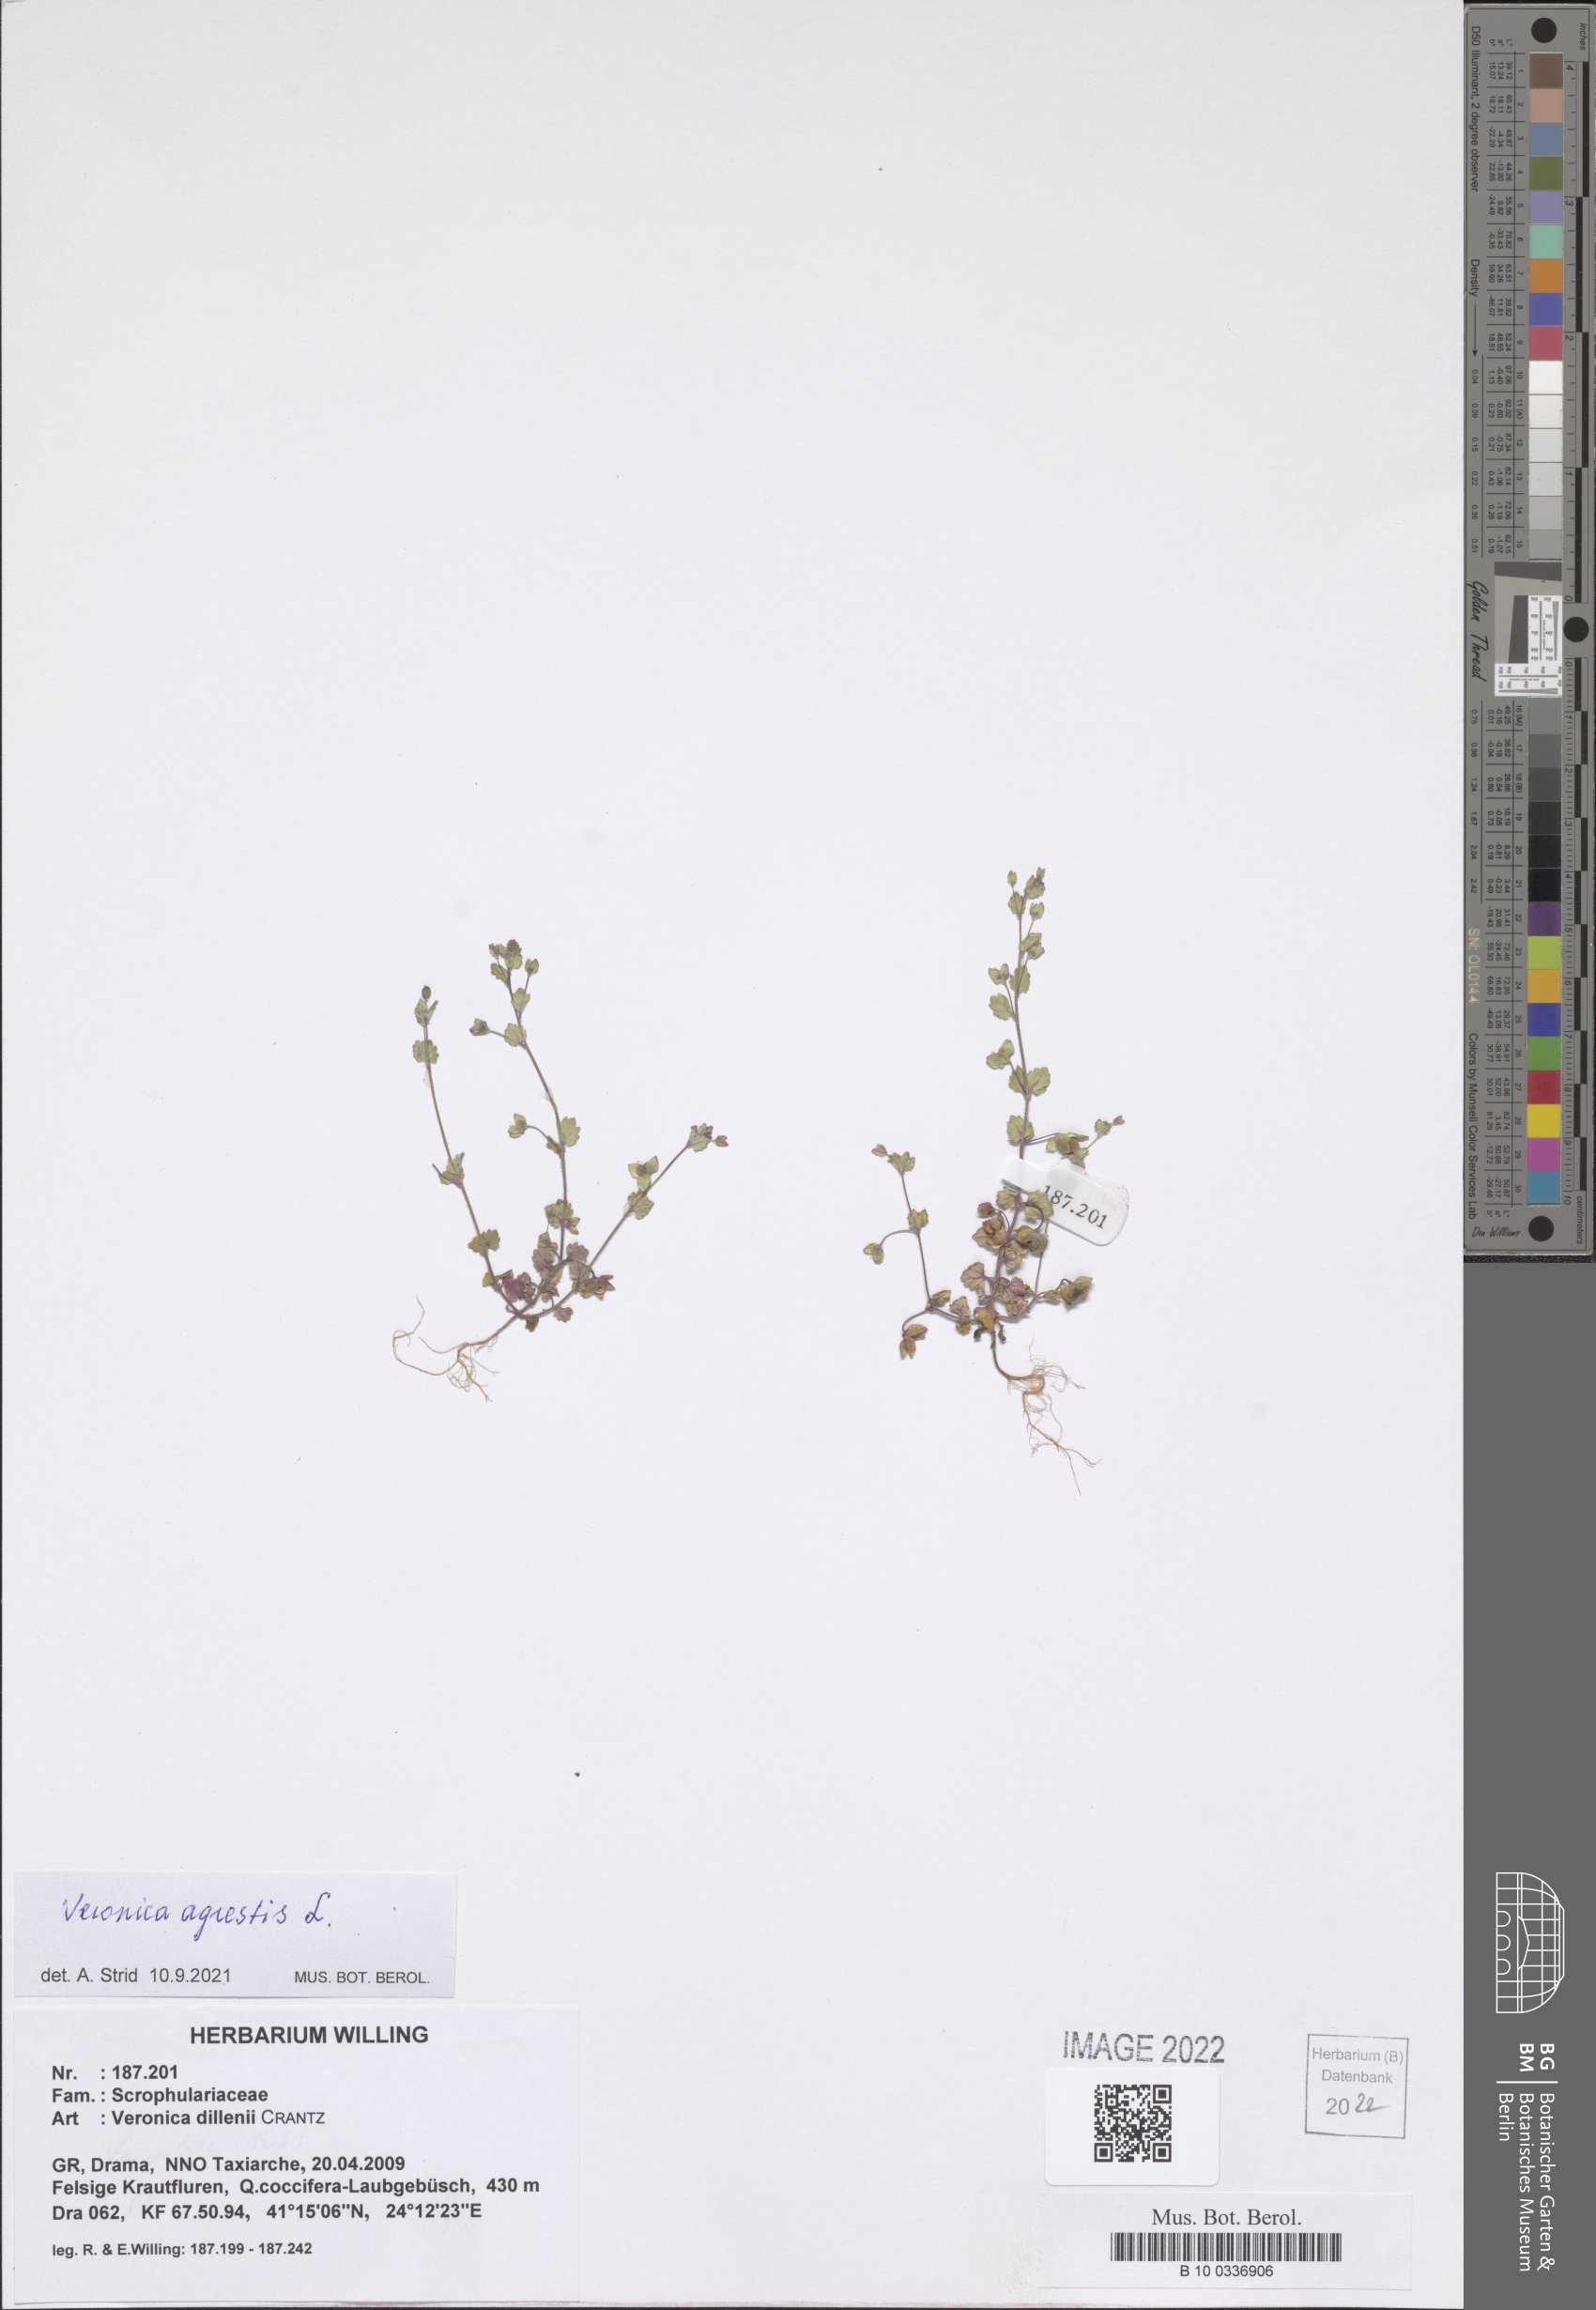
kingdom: Plantae
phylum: Tracheophyta
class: Magnoliopsida
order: Lamiales
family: Plantaginaceae
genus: Veronica
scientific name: Veronica agrestis
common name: Green field-speedwell
